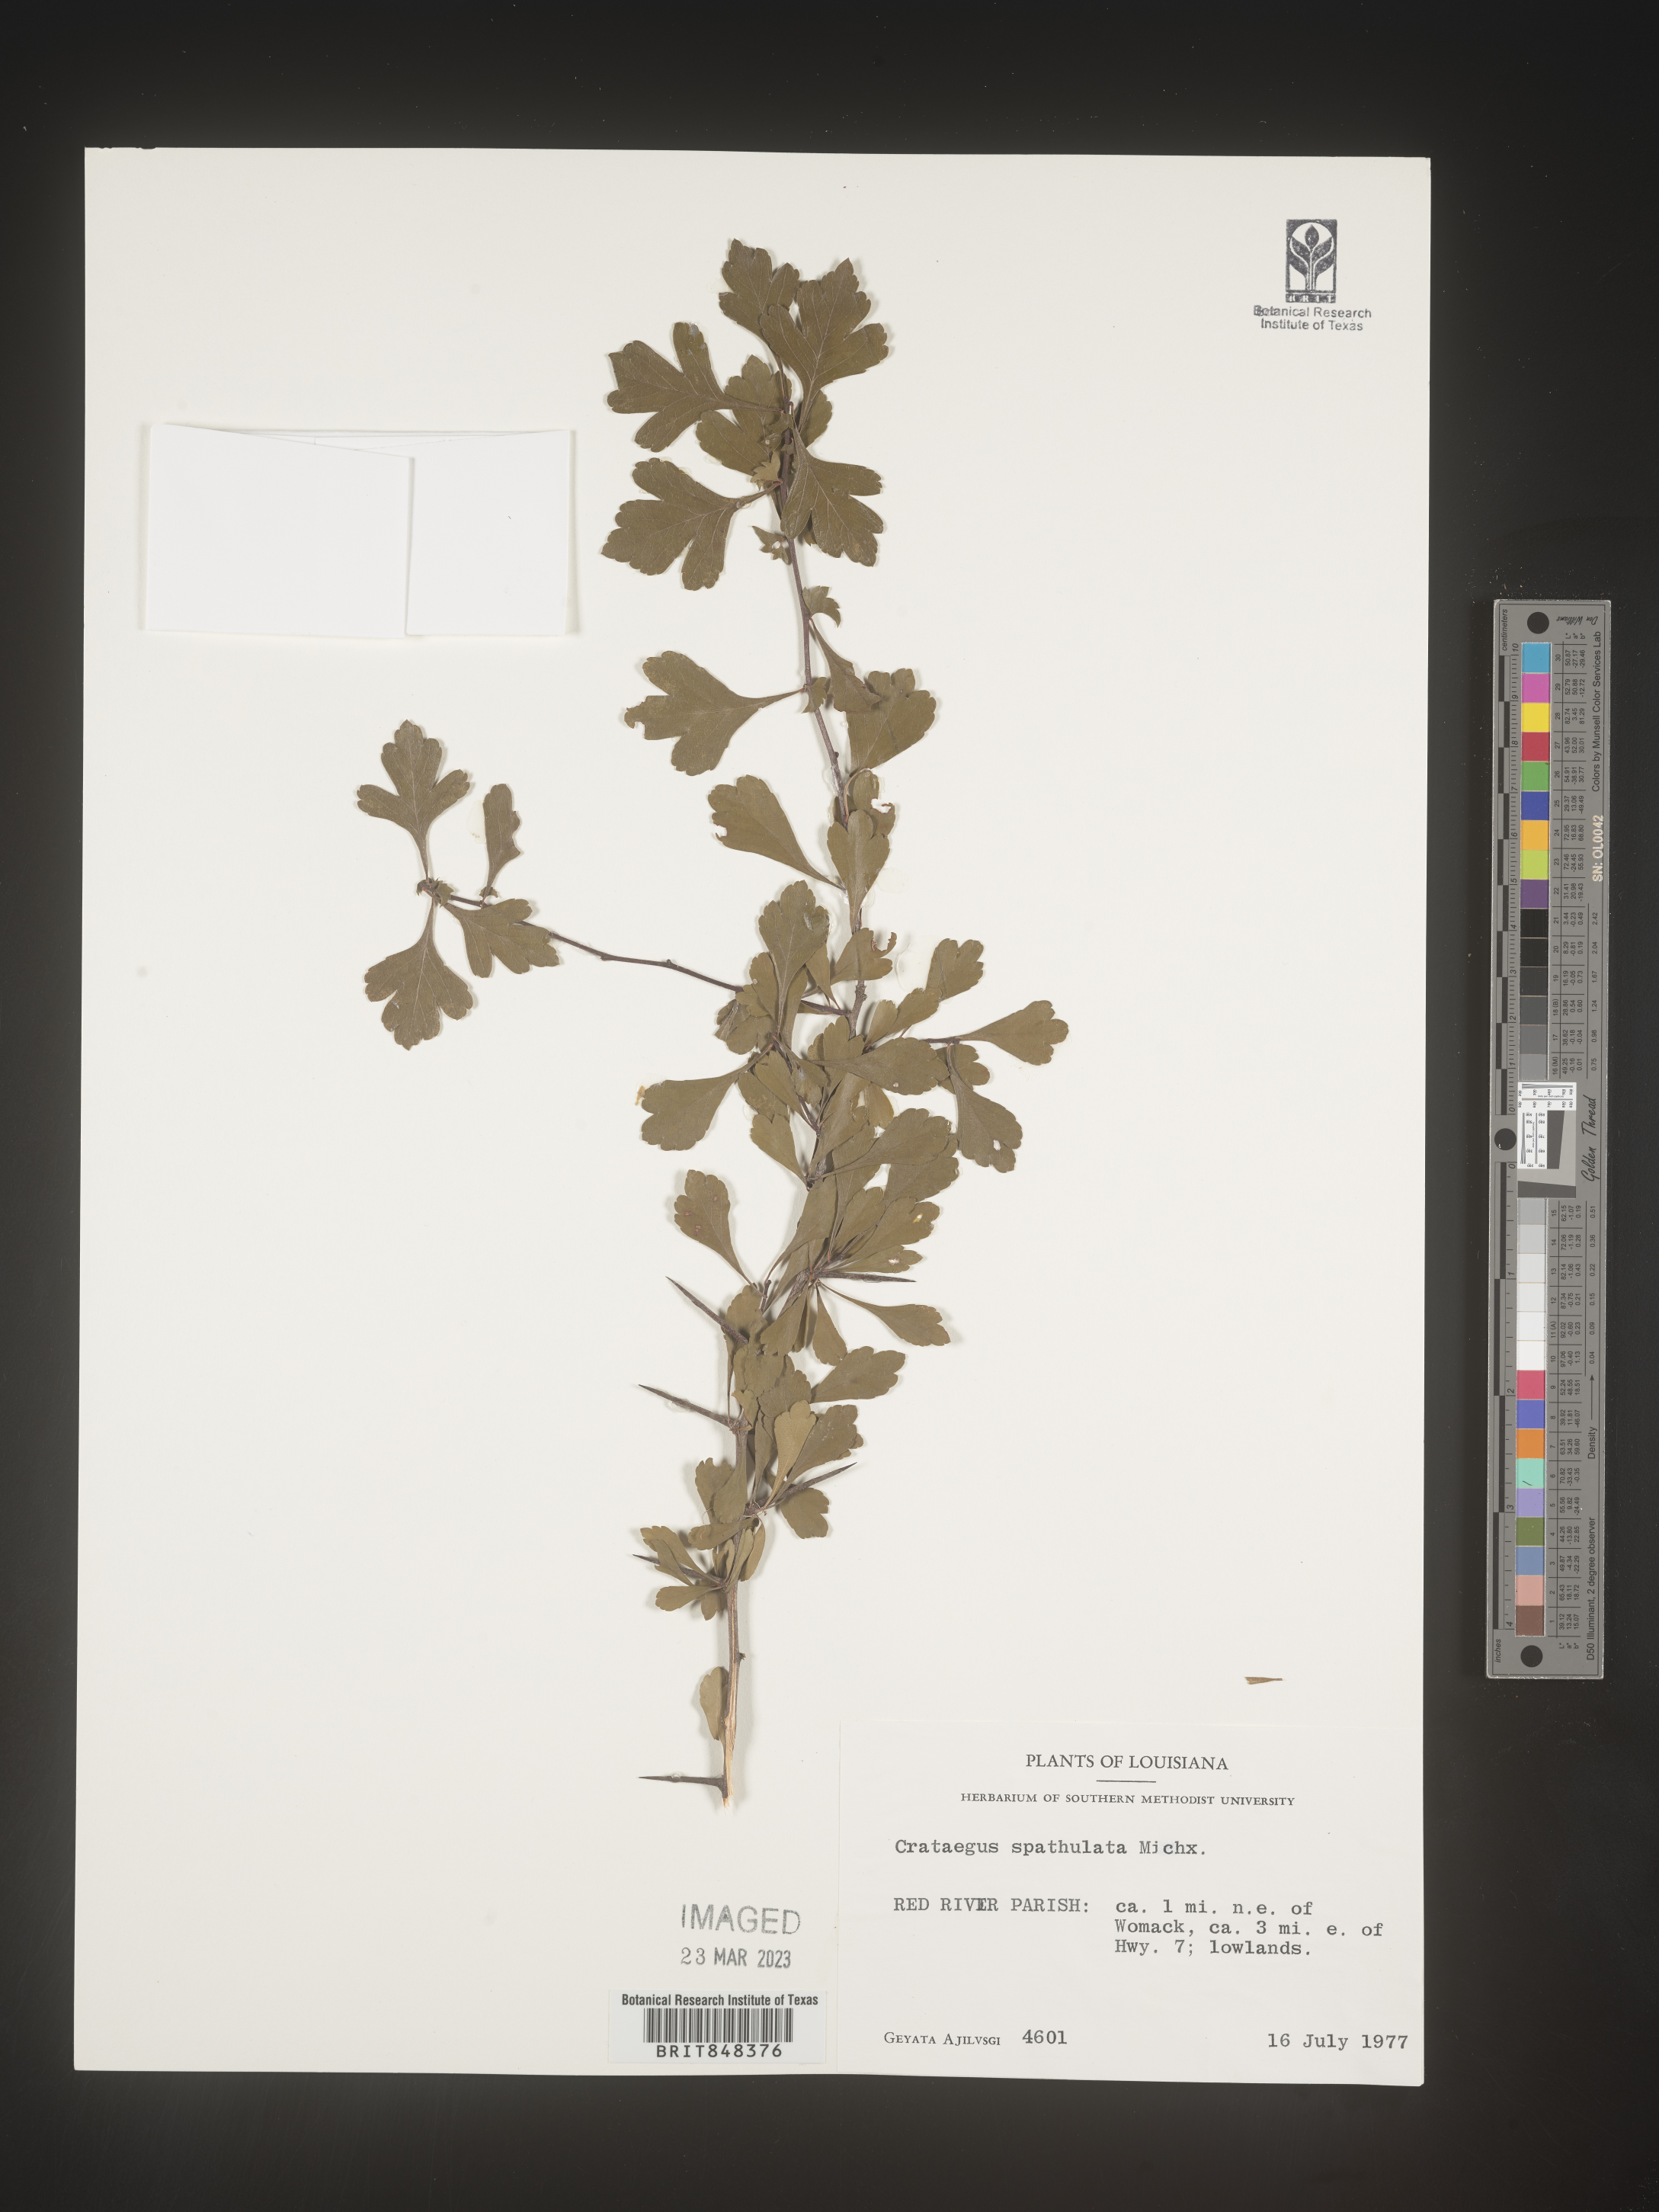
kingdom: Plantae
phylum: Tracheophyta
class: Magnoliopsida
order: Rosales
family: Rosaceae
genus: Crataegus
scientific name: Crataegus spathulata
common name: Littlehip hawthorn
